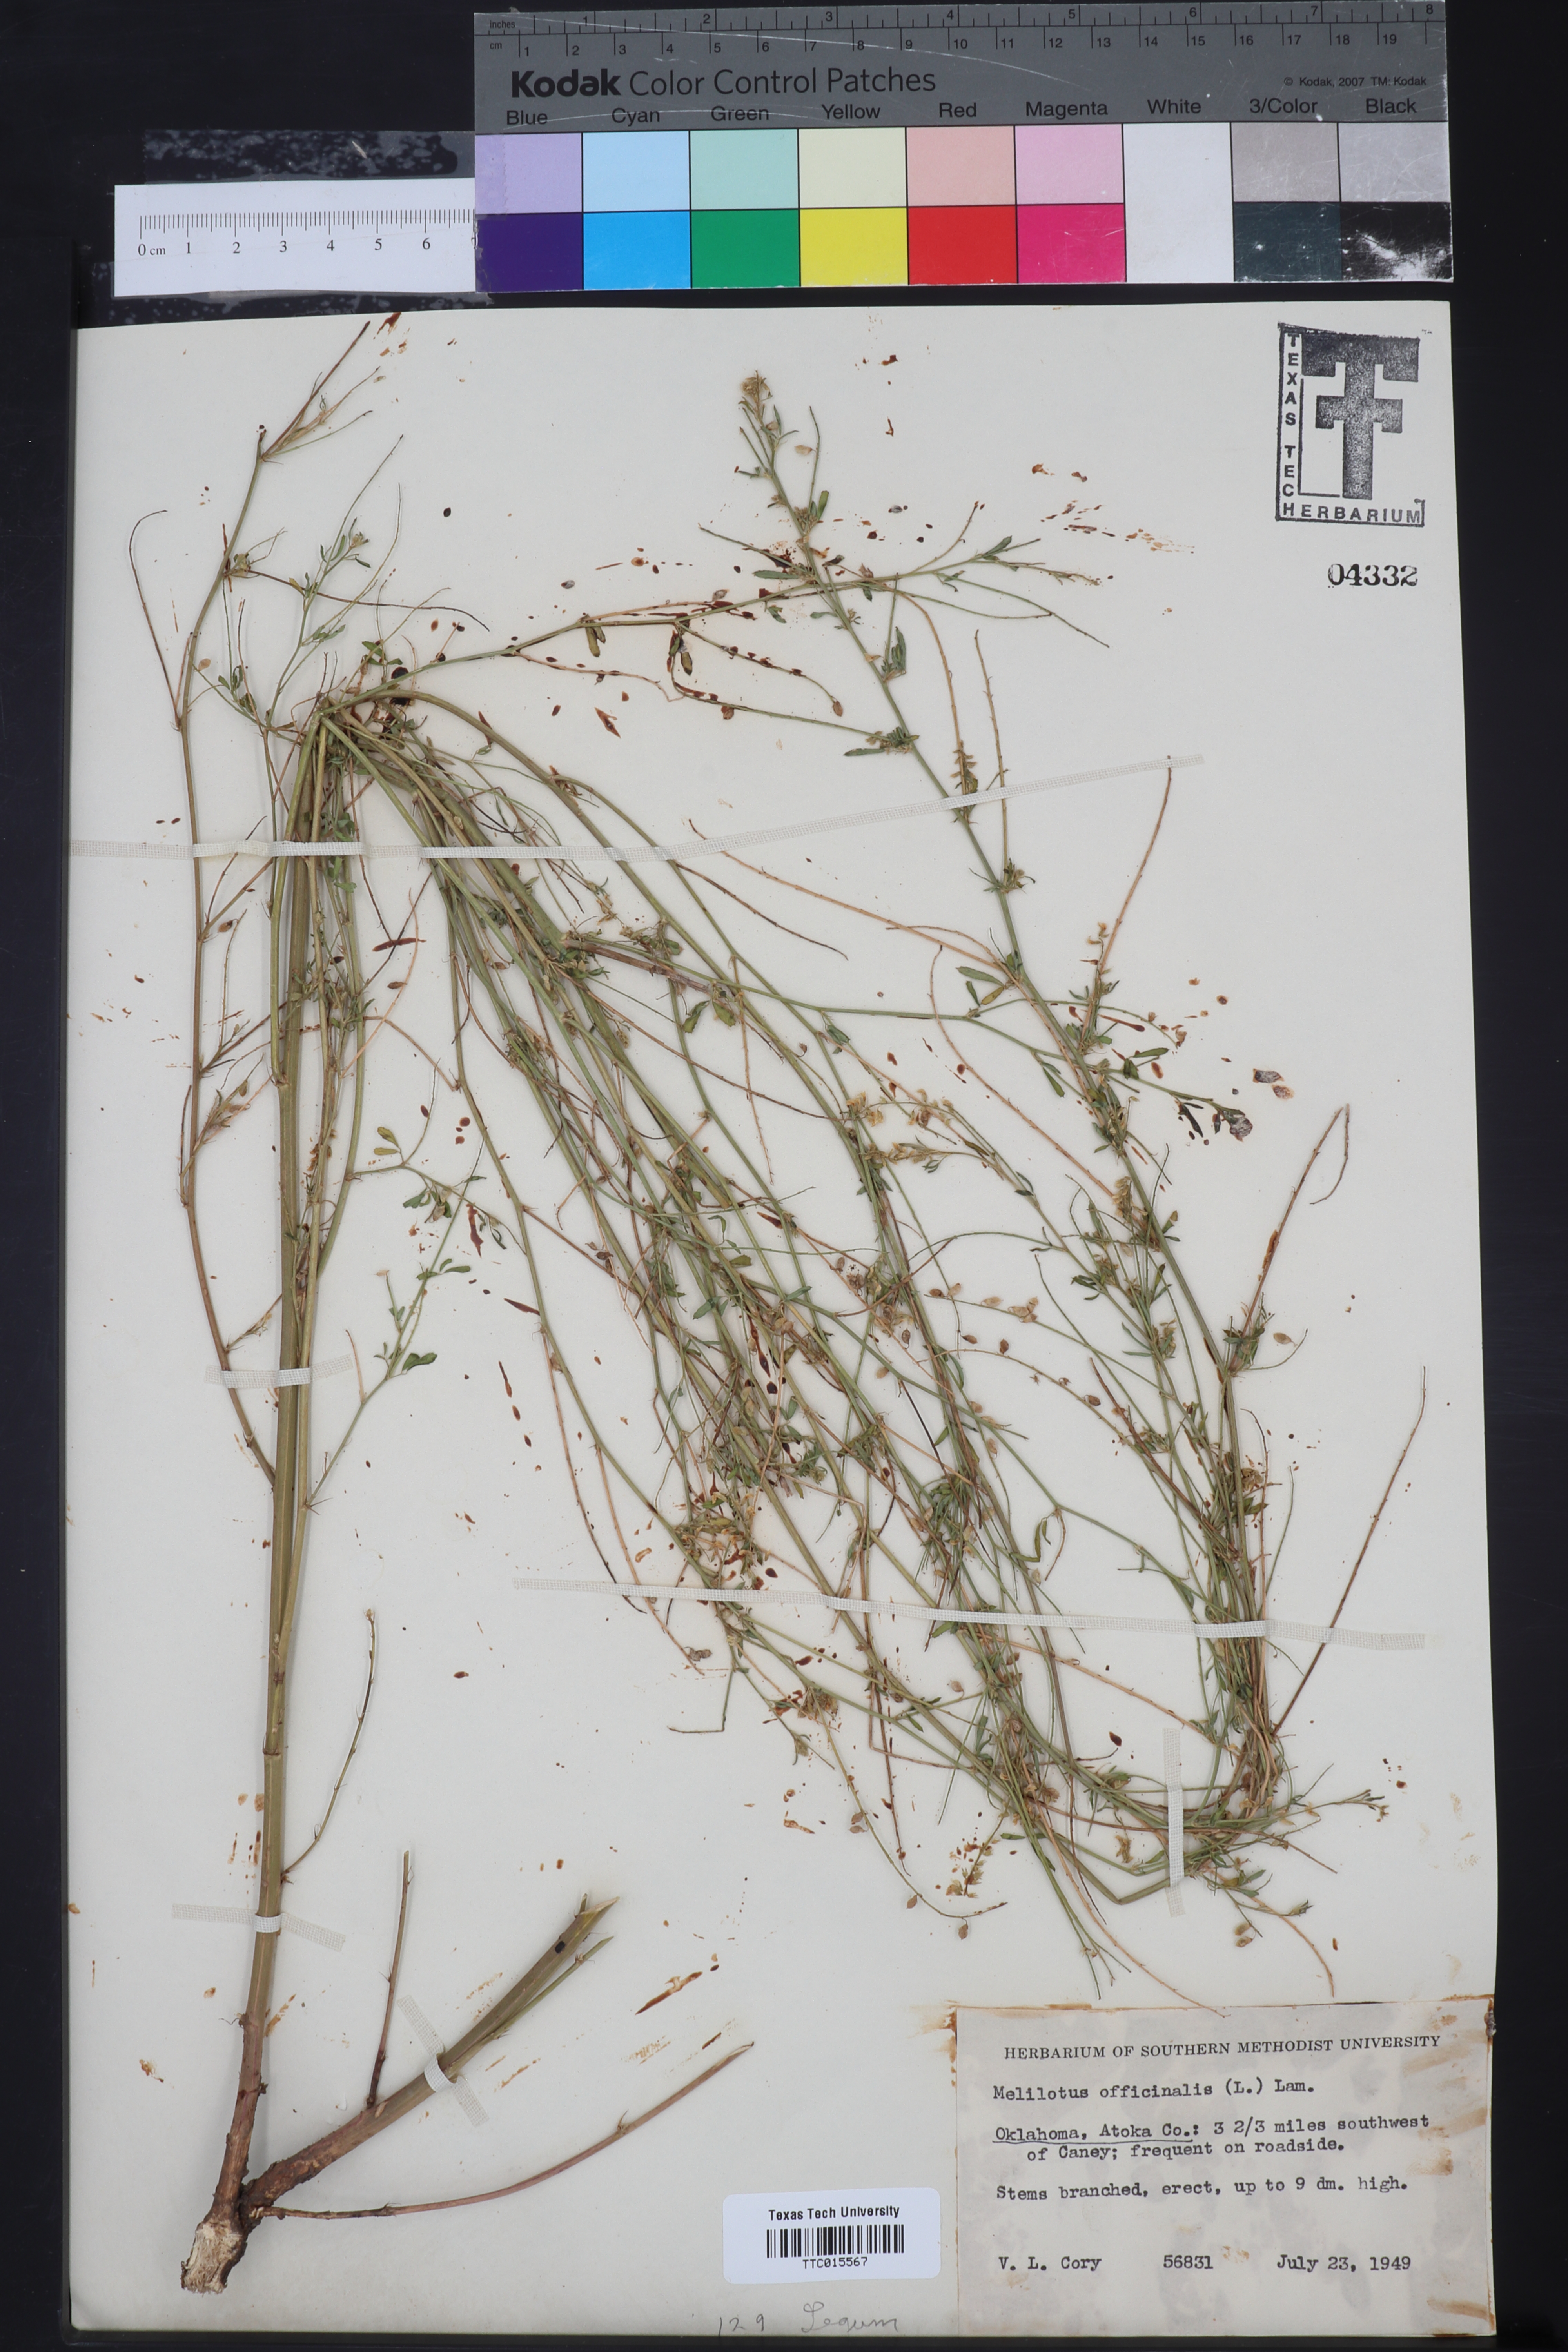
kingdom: Plantae
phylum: Tracheophyta
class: Magnoliopsida
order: Fabales
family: Fabaceae
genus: Melilotus
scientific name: Melilotus officinalis
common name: Sweetclover
